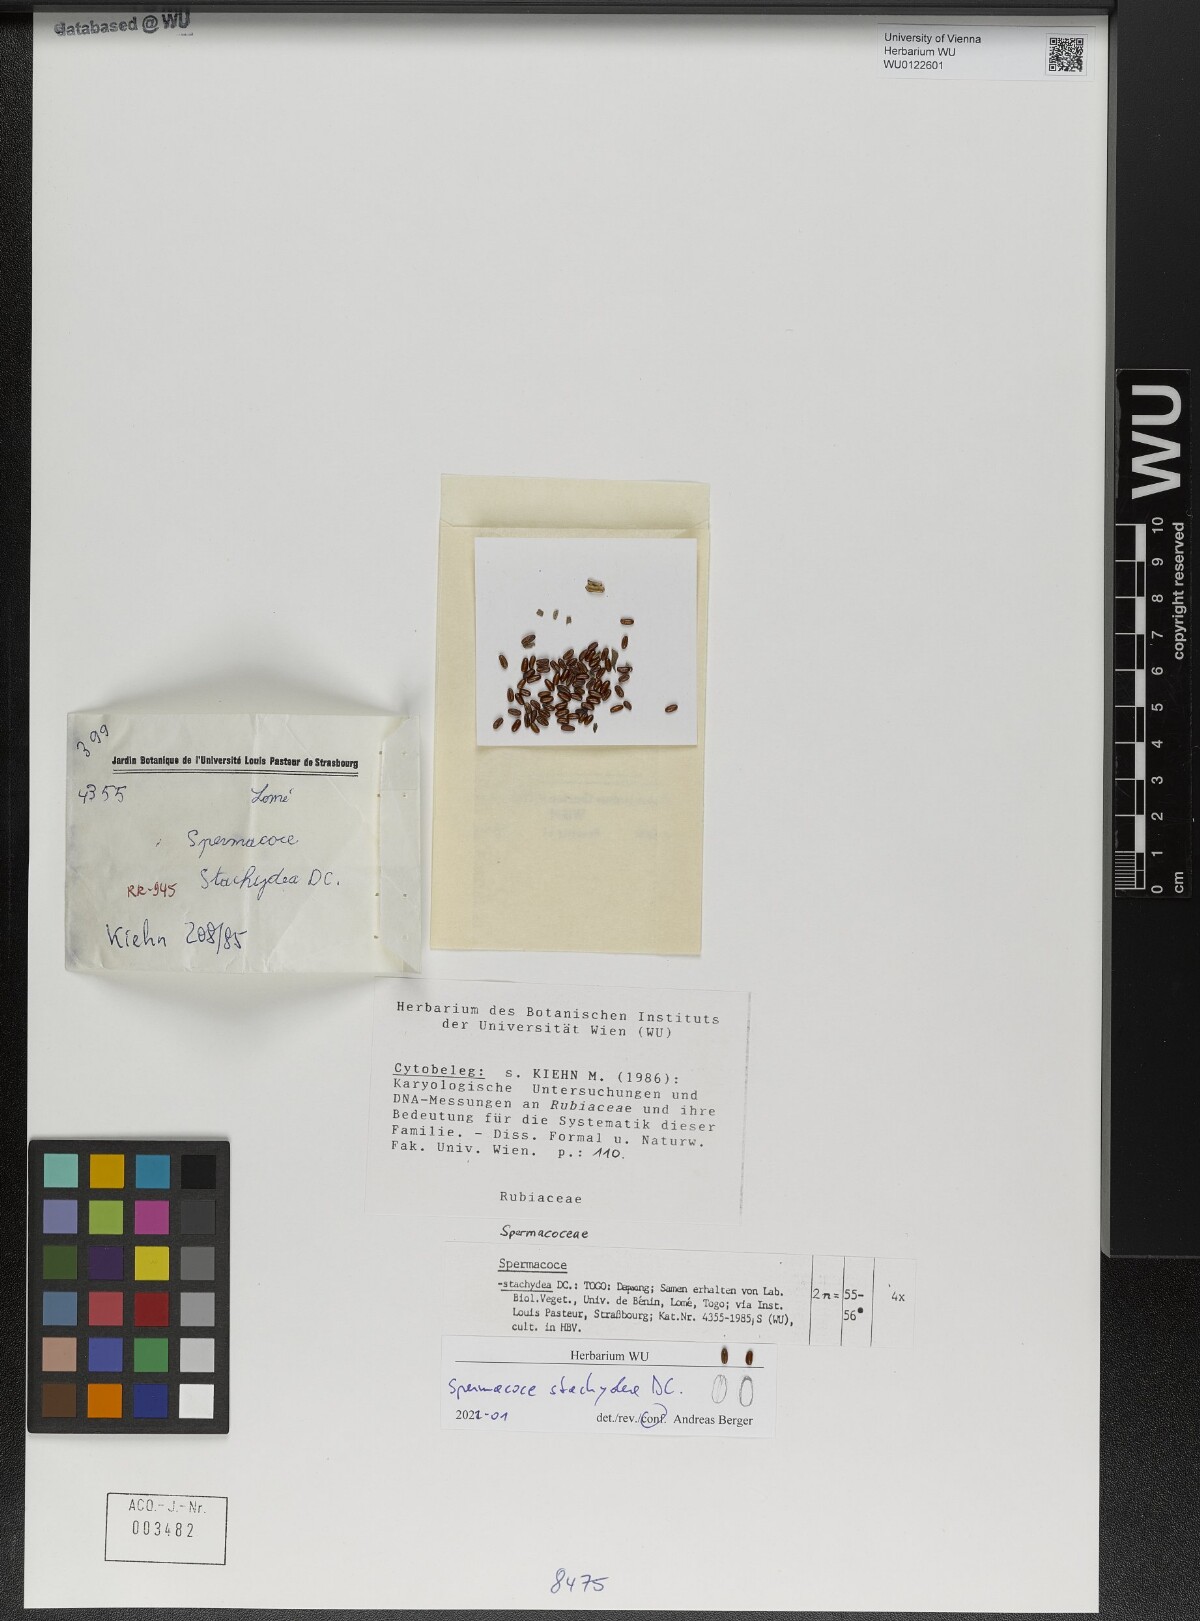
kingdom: Plantae
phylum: Tracheophyta
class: Magnoliopsida
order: Gentianales
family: Rubiaceae
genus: Spermacoce
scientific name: Spermacoce stachydea
